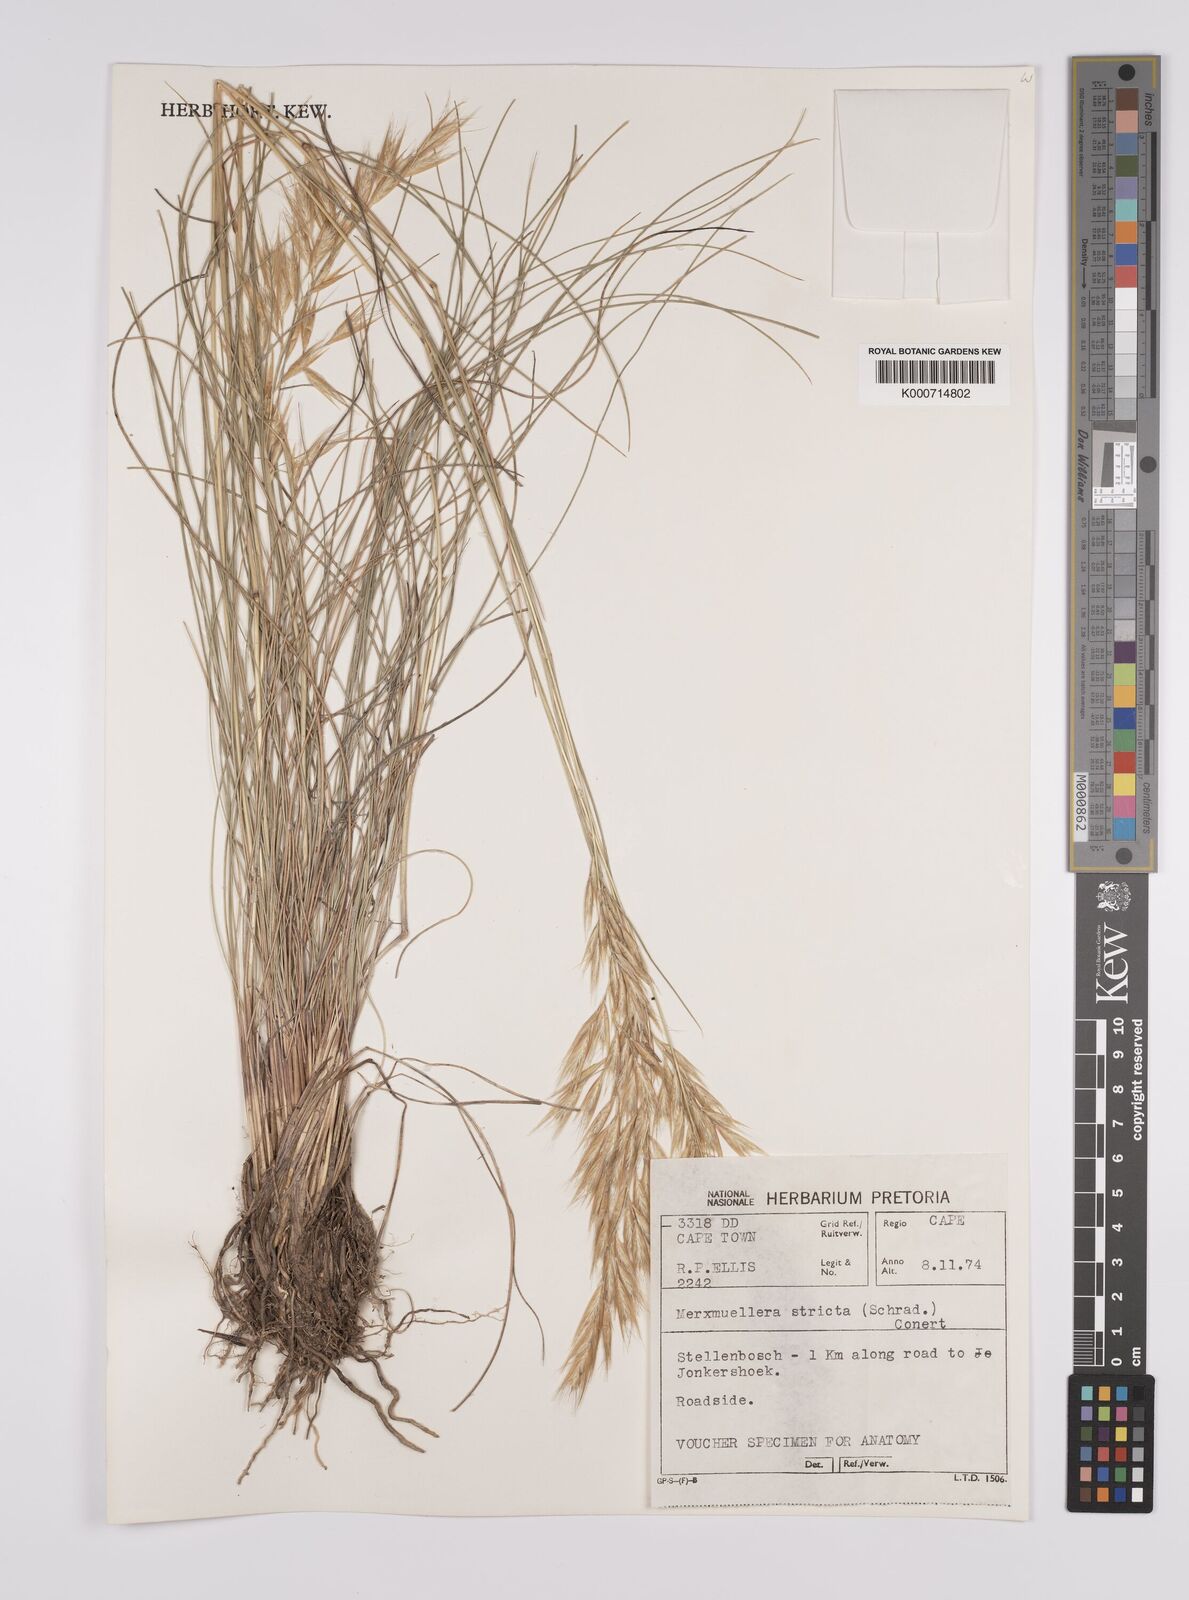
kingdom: Plantae
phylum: Tracheophyta
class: Liliopsida
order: Poales
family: Poaceae
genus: Rytidosperma
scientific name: Rytidosperma
